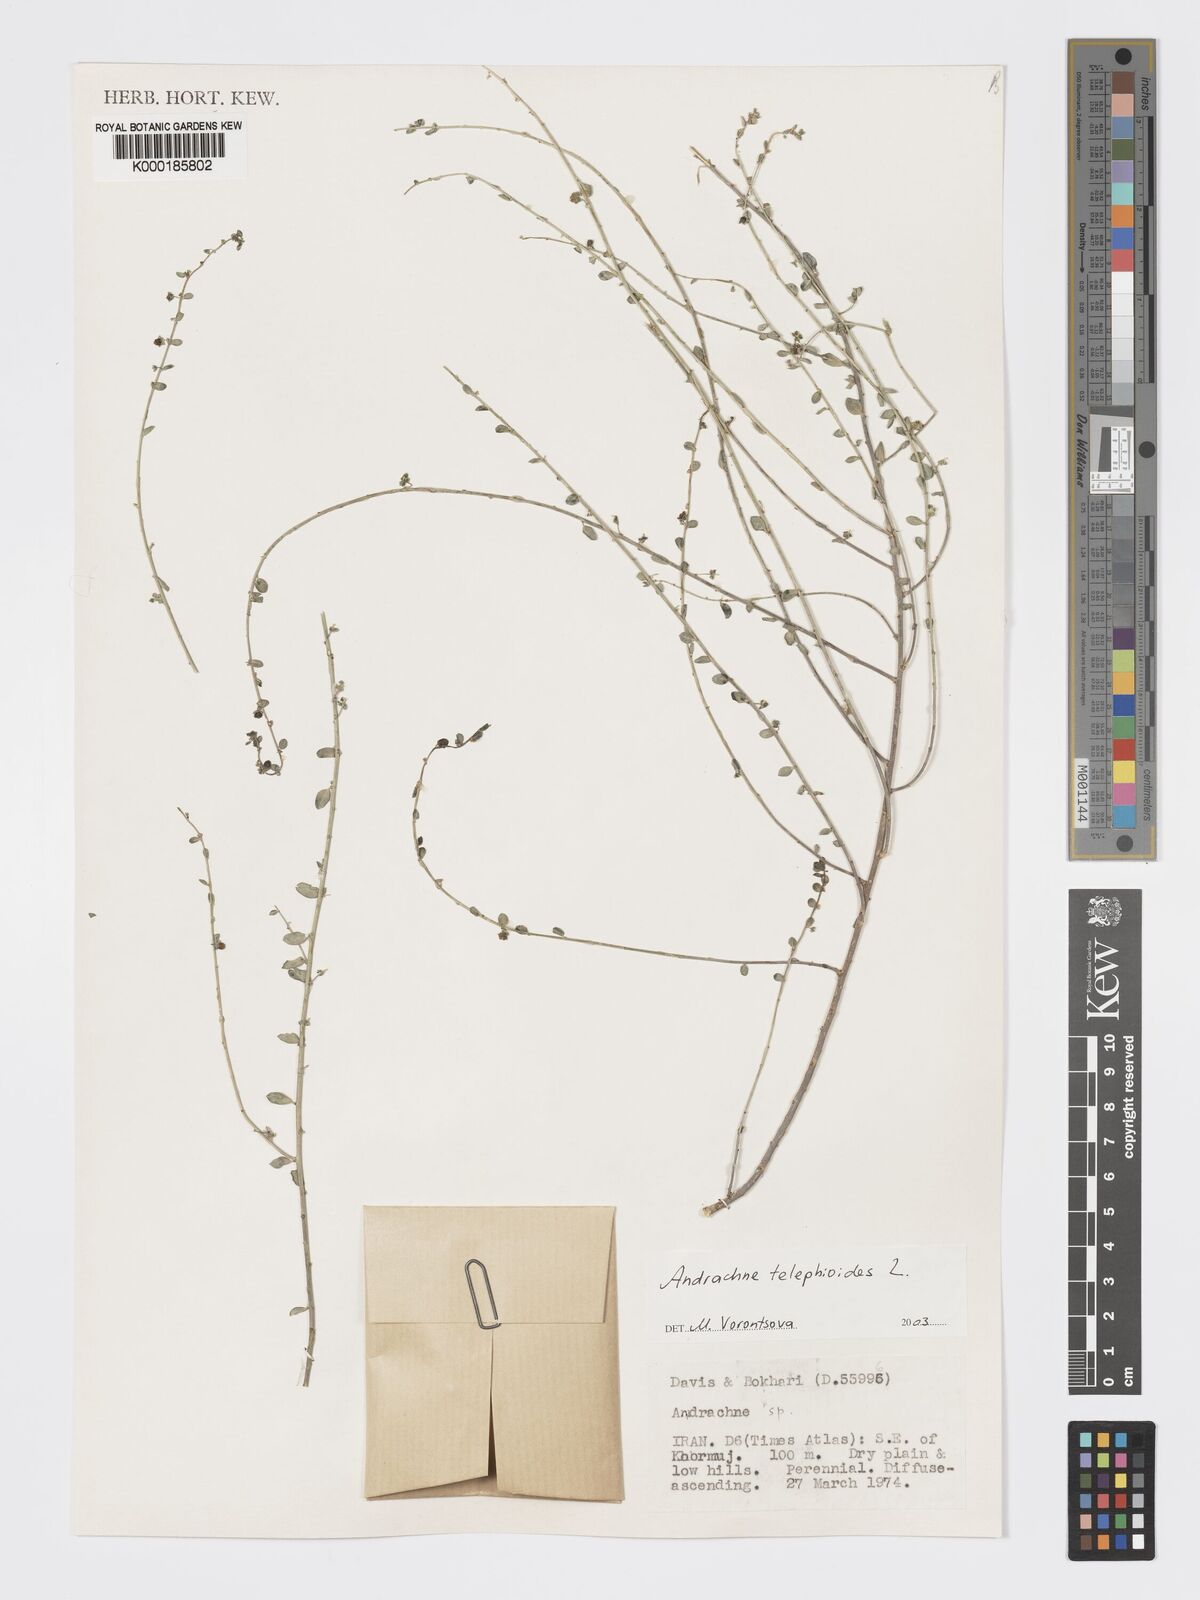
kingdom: Plantae
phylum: Tracheophyta
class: Magnoliopsida
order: Malpighiales
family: Phyllanthaceae
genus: Andrachne
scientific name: Andrachne telephioides
